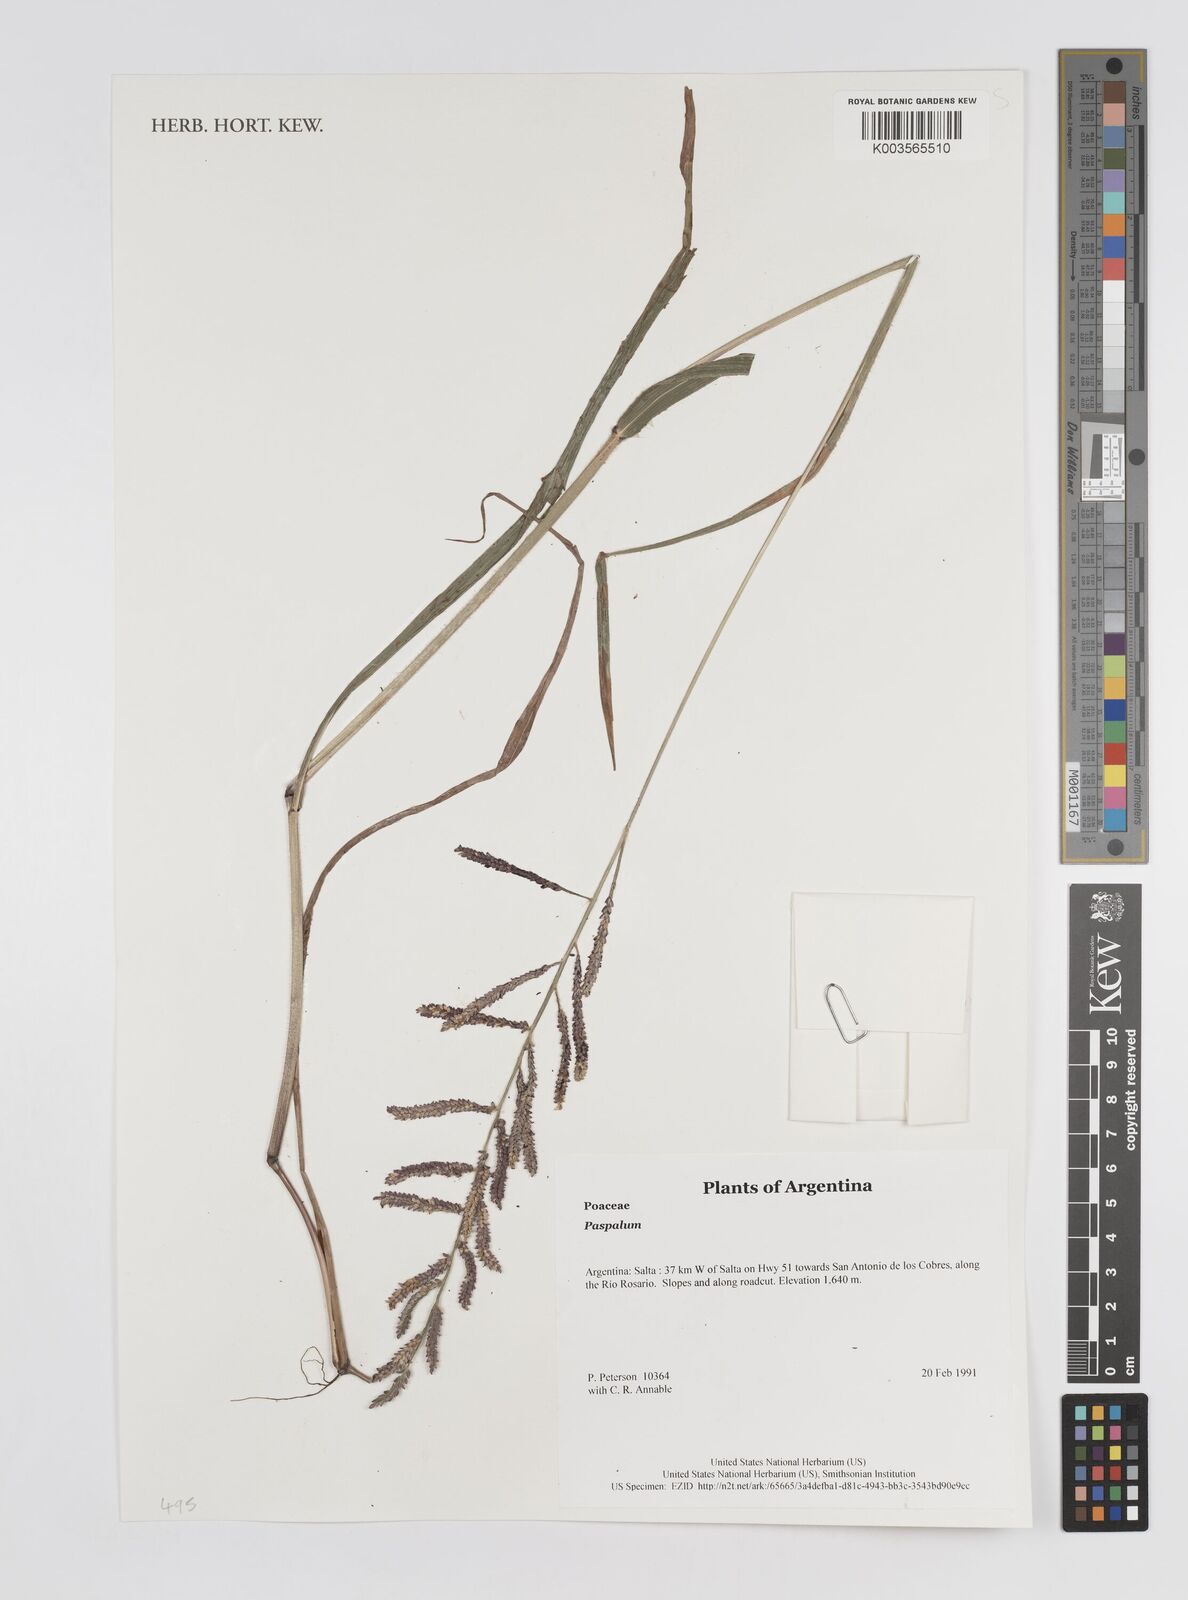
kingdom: Plantae
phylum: Tracheophyta
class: Liliopsida
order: Poales
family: Poaceae
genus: Paspalum
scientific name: Paspalum
